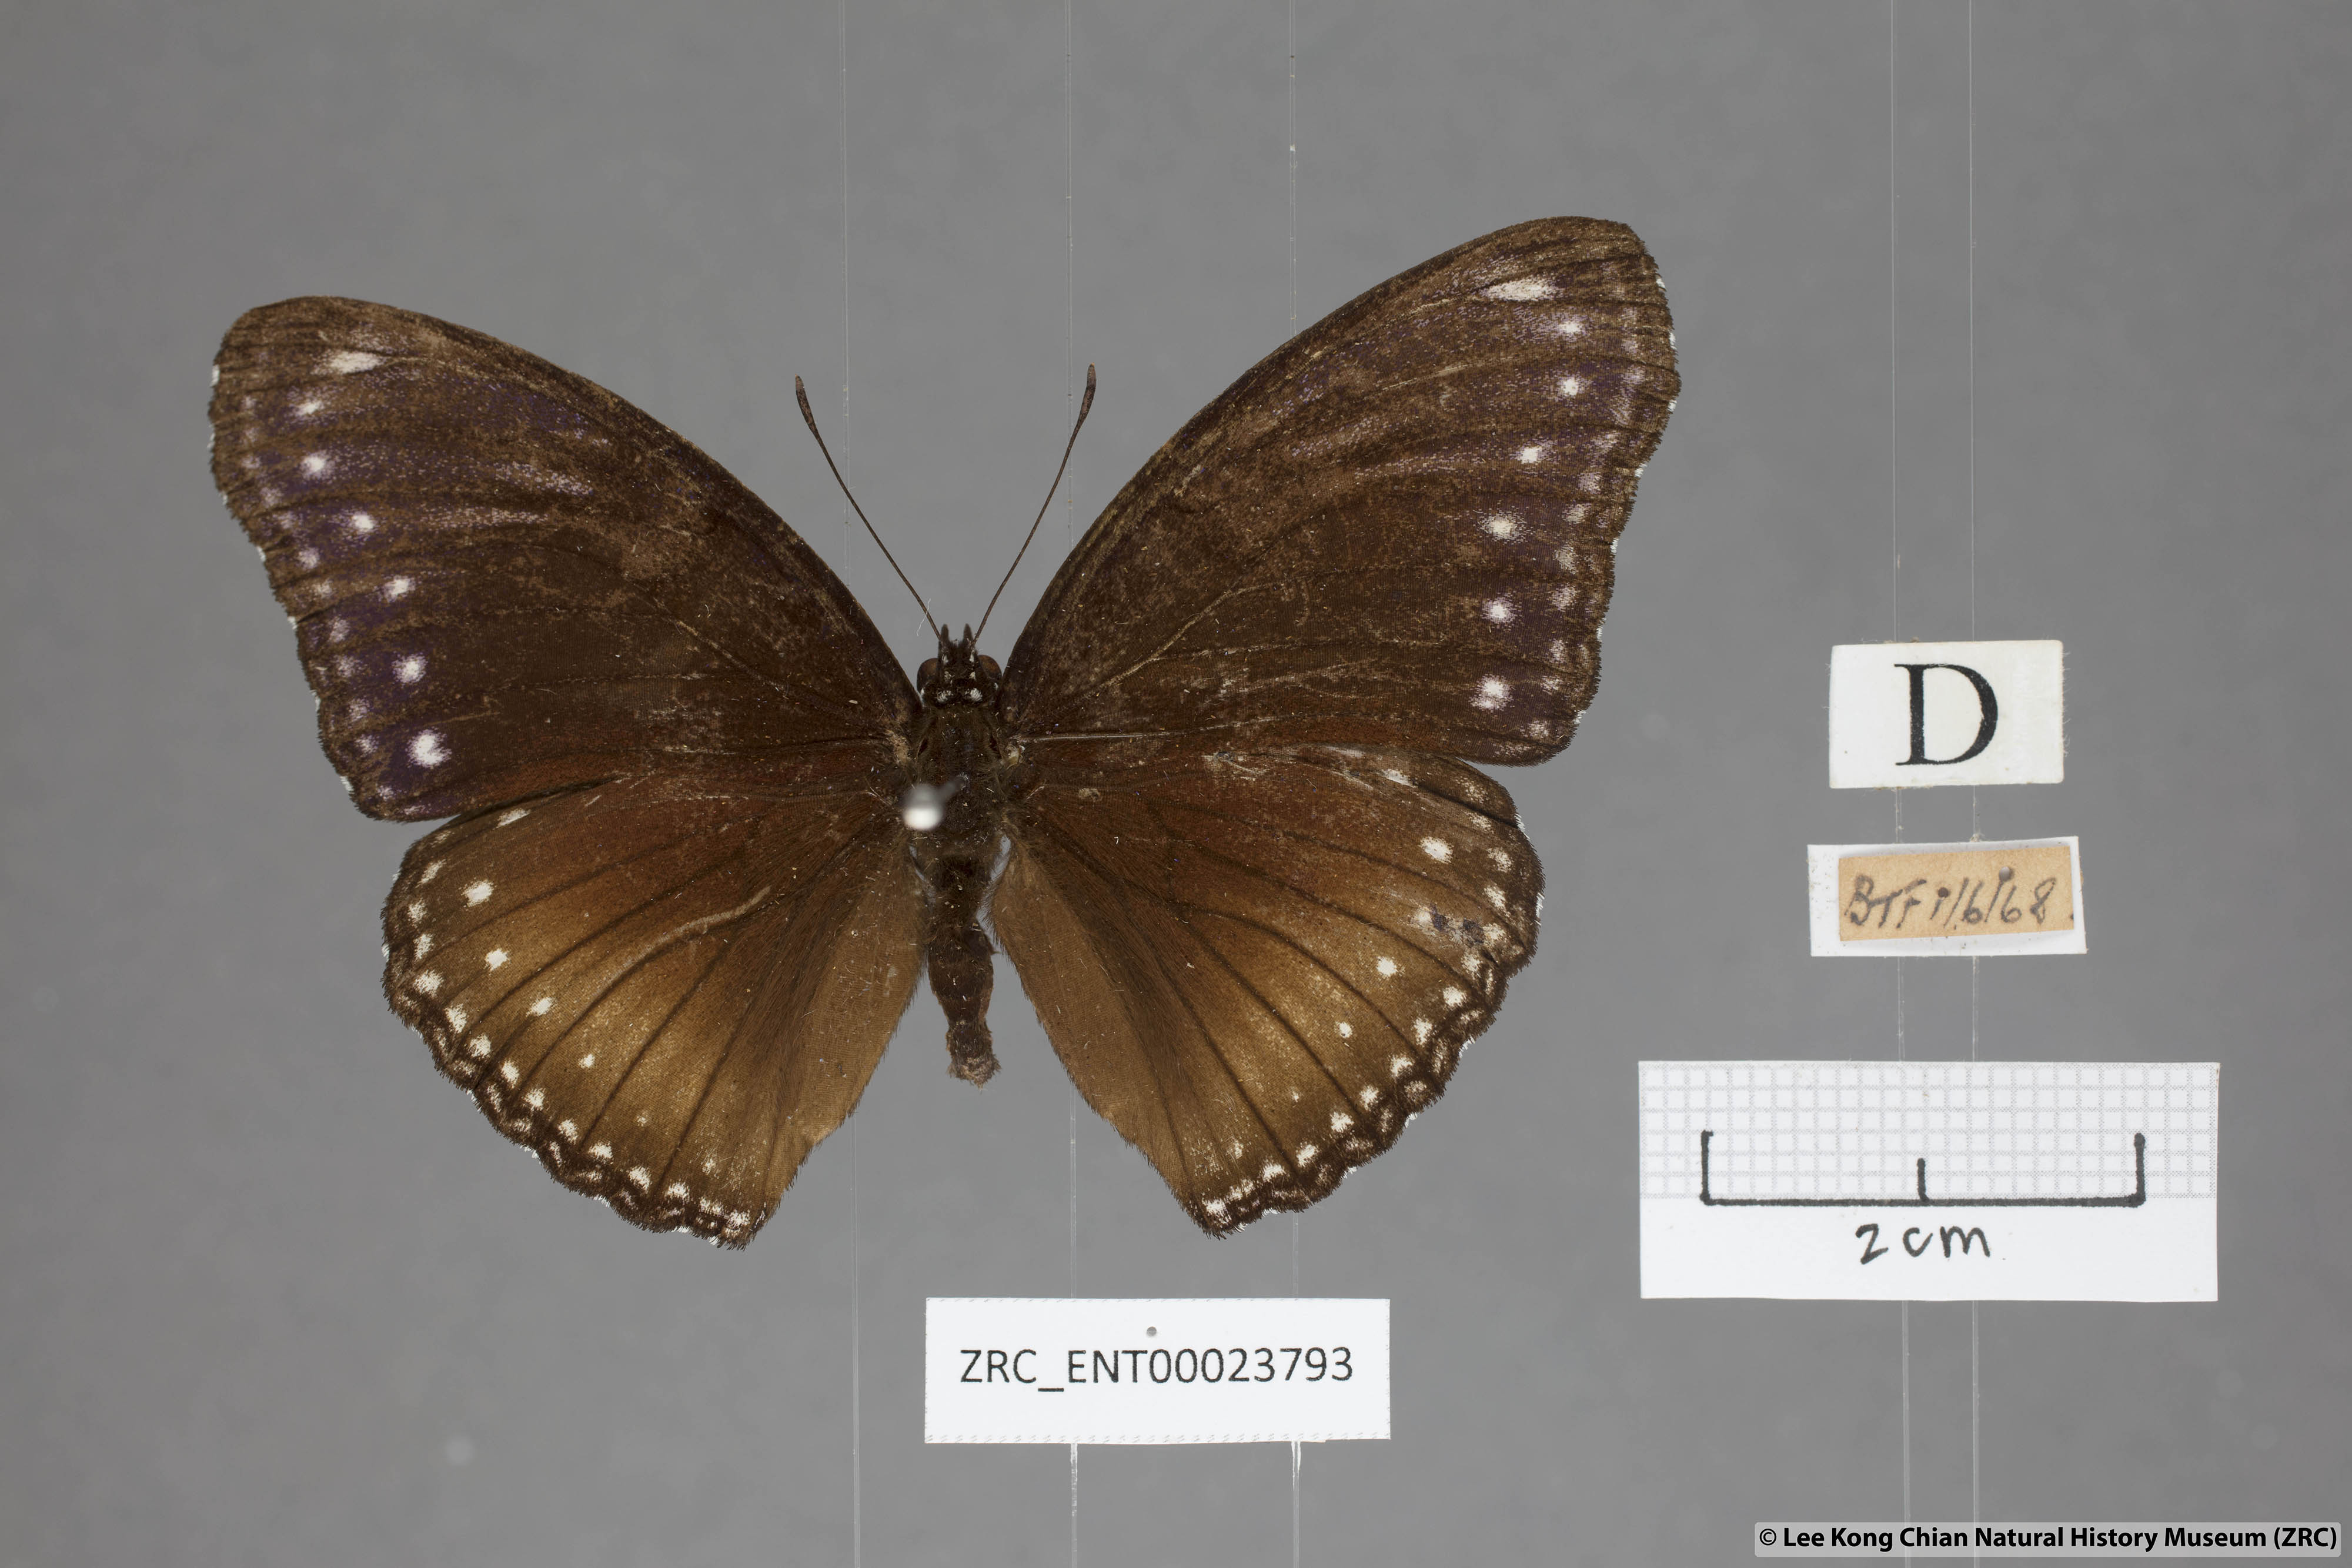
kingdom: Animalia
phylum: Arthropoda
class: Insecta
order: Lepidoptera
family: Nymphalidae
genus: Hypolimnas
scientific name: Hypolimnas anomala
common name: Malayan eggfly
